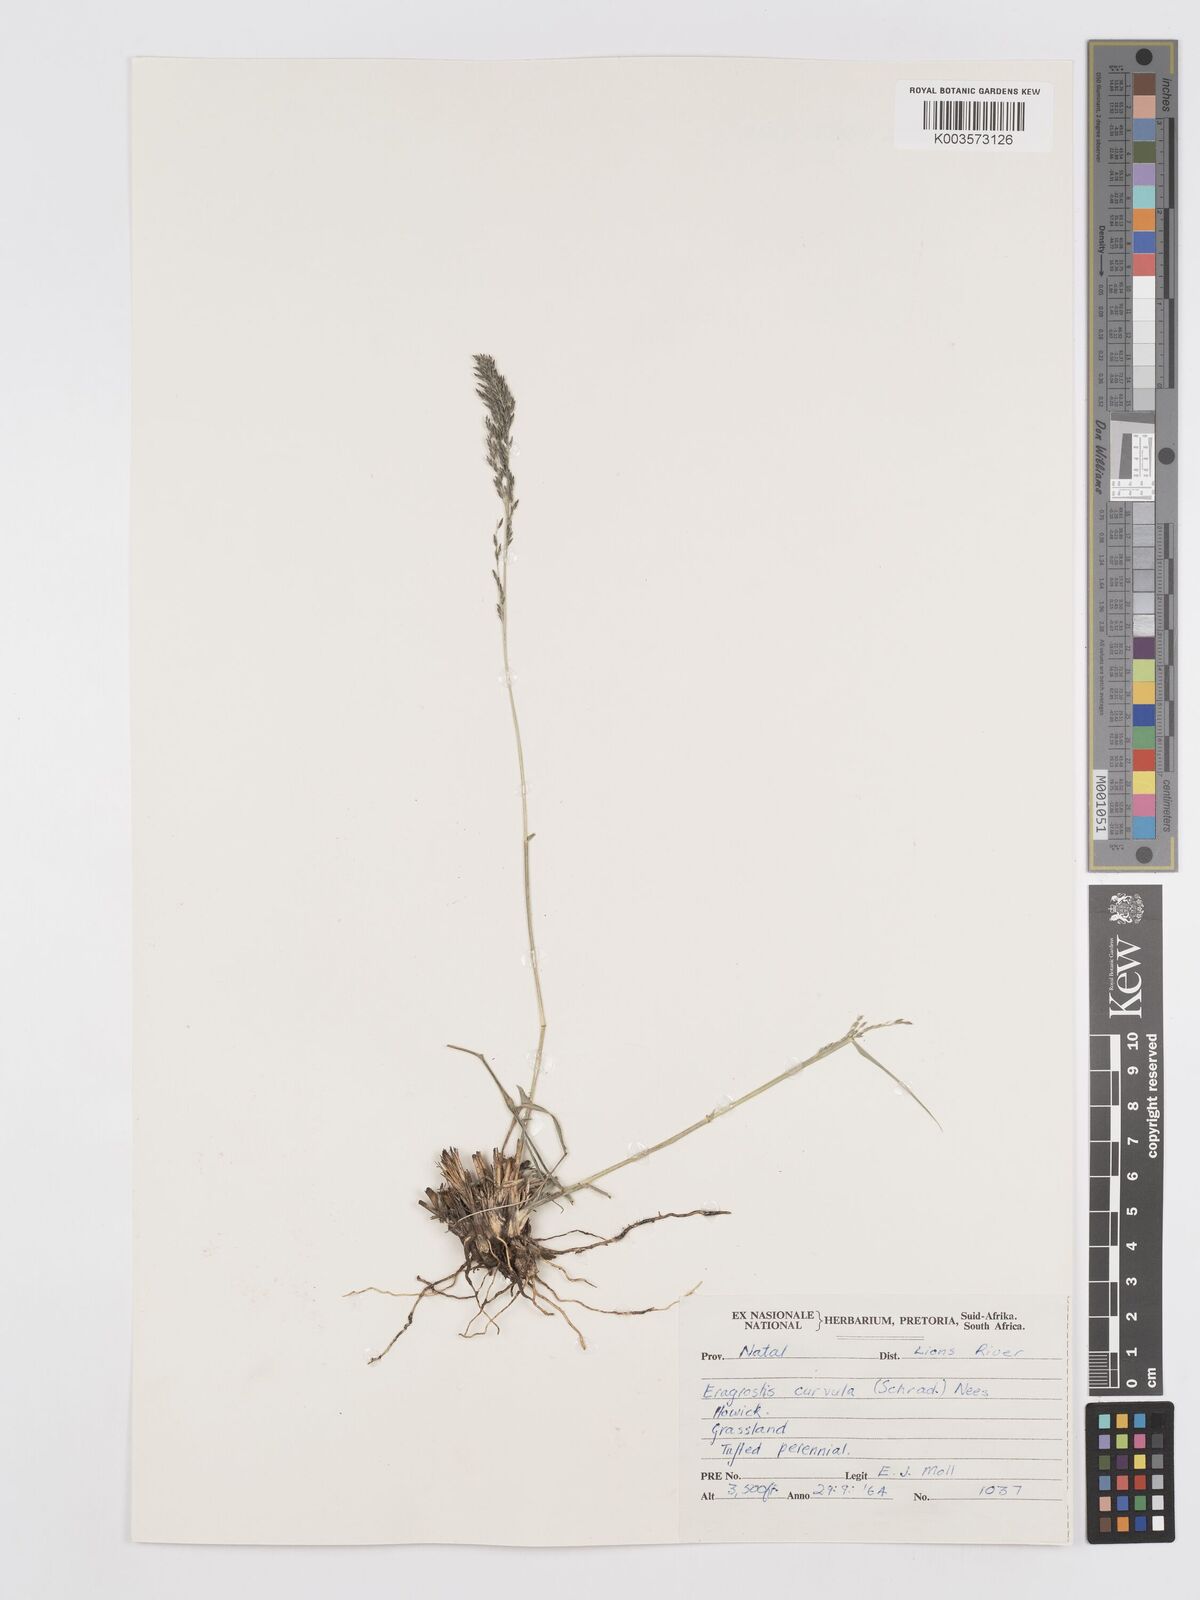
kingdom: Plantae
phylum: Tracheophyta
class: Liliopsida
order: Poales
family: Poaceae
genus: Eragrostis
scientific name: Eragrostis curvula
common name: African love-grass
